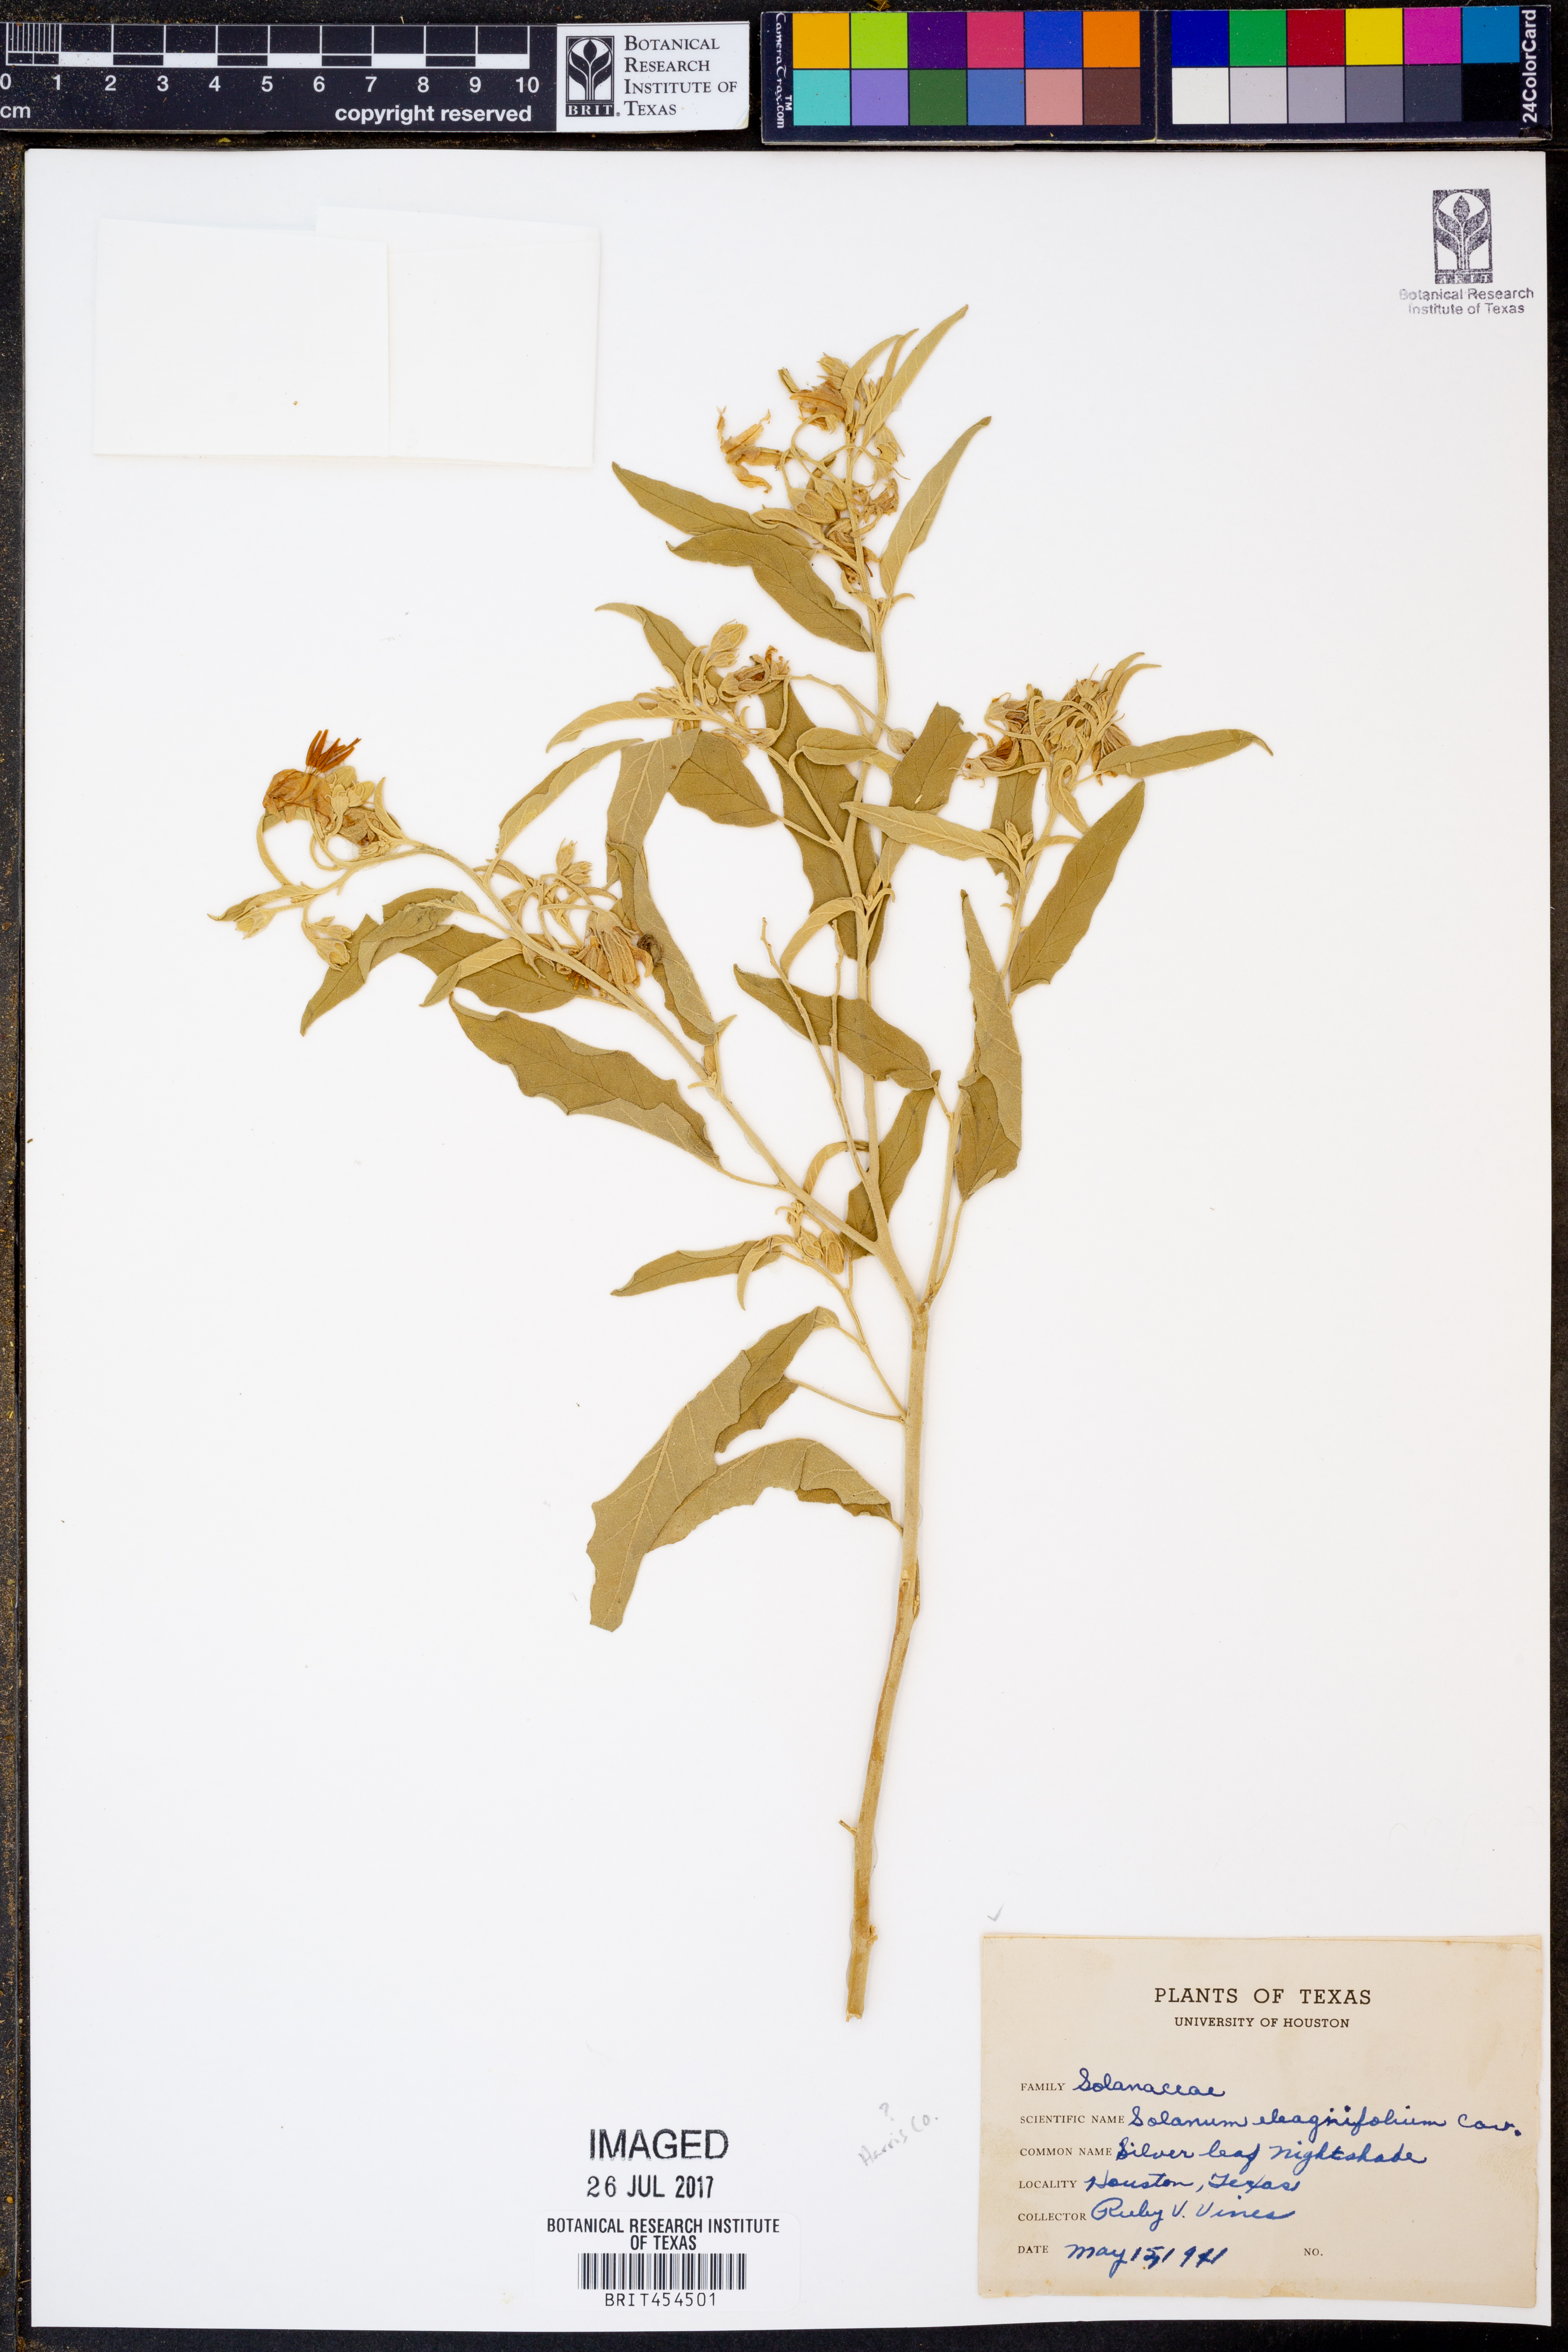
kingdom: Plantae
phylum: Tracheophyta
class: Magnoliopsida
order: Solanales
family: Solanaceae
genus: Solanum
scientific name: Solanum elaeagnifolium
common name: Silverleaf nightshade
